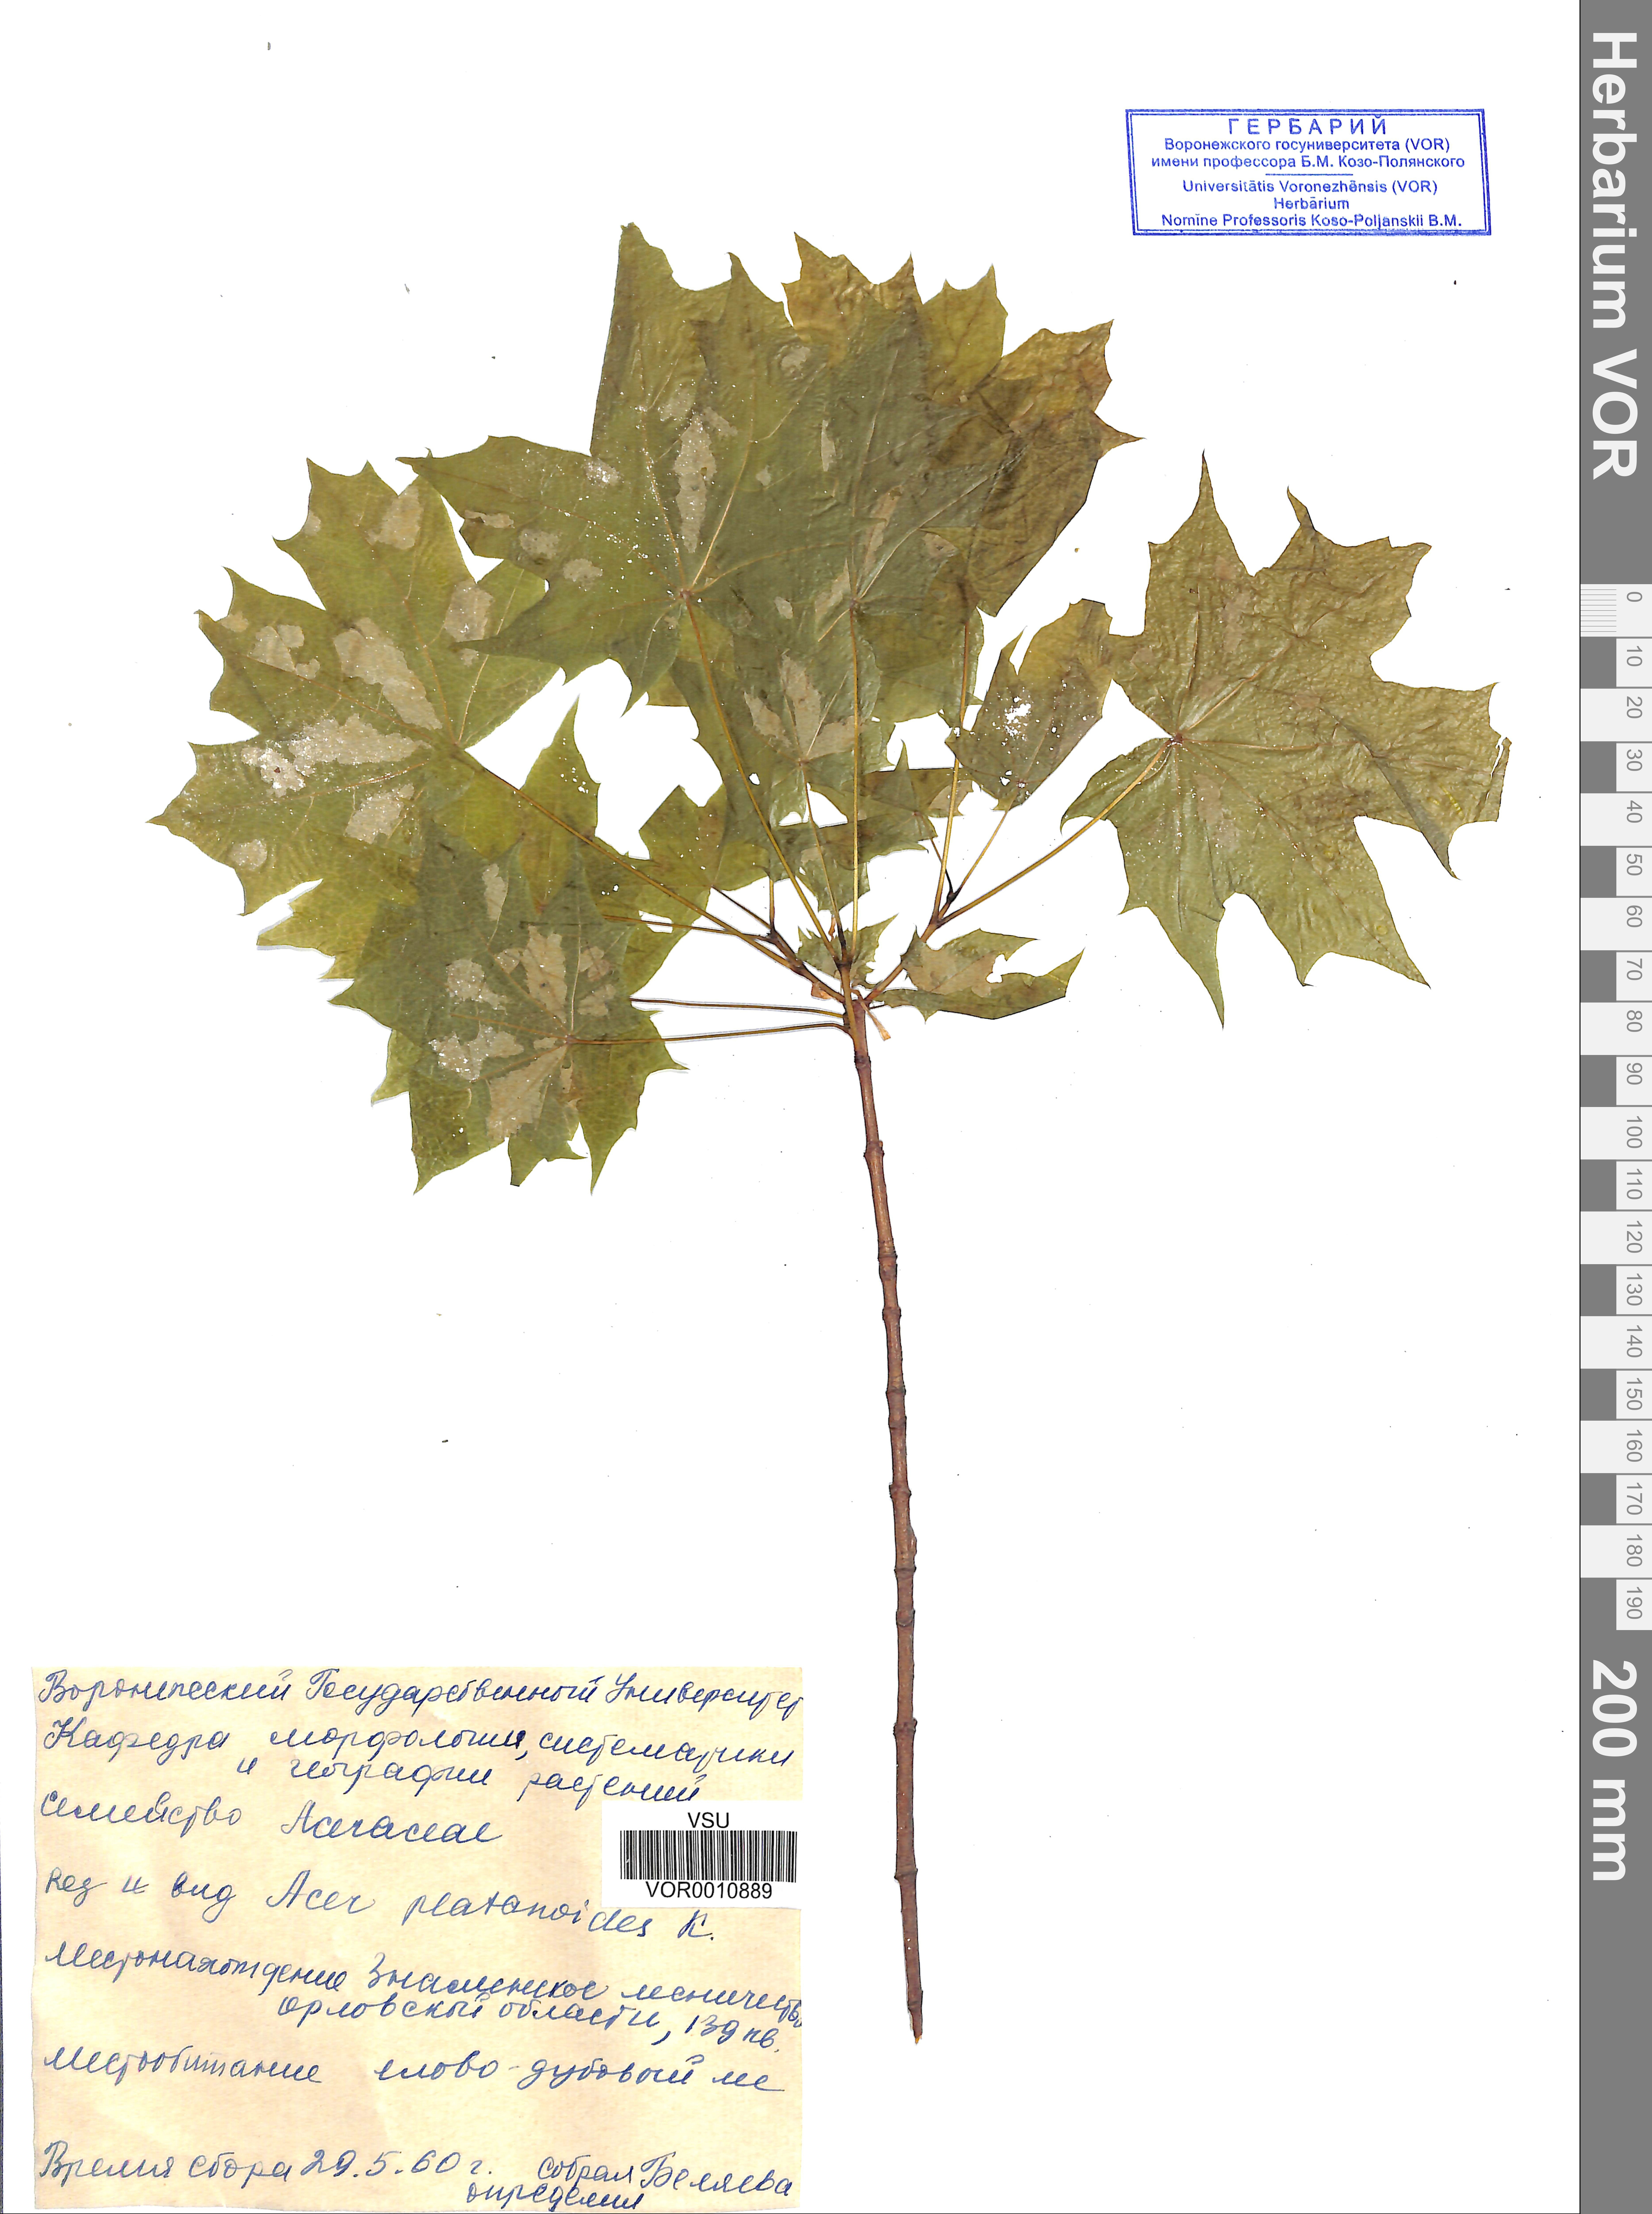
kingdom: Plantae
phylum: Tracheophyta
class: Magnoliopsida
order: Sapindales
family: Sapindaceae
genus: Acer
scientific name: Acer platanoides
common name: Norway maple
